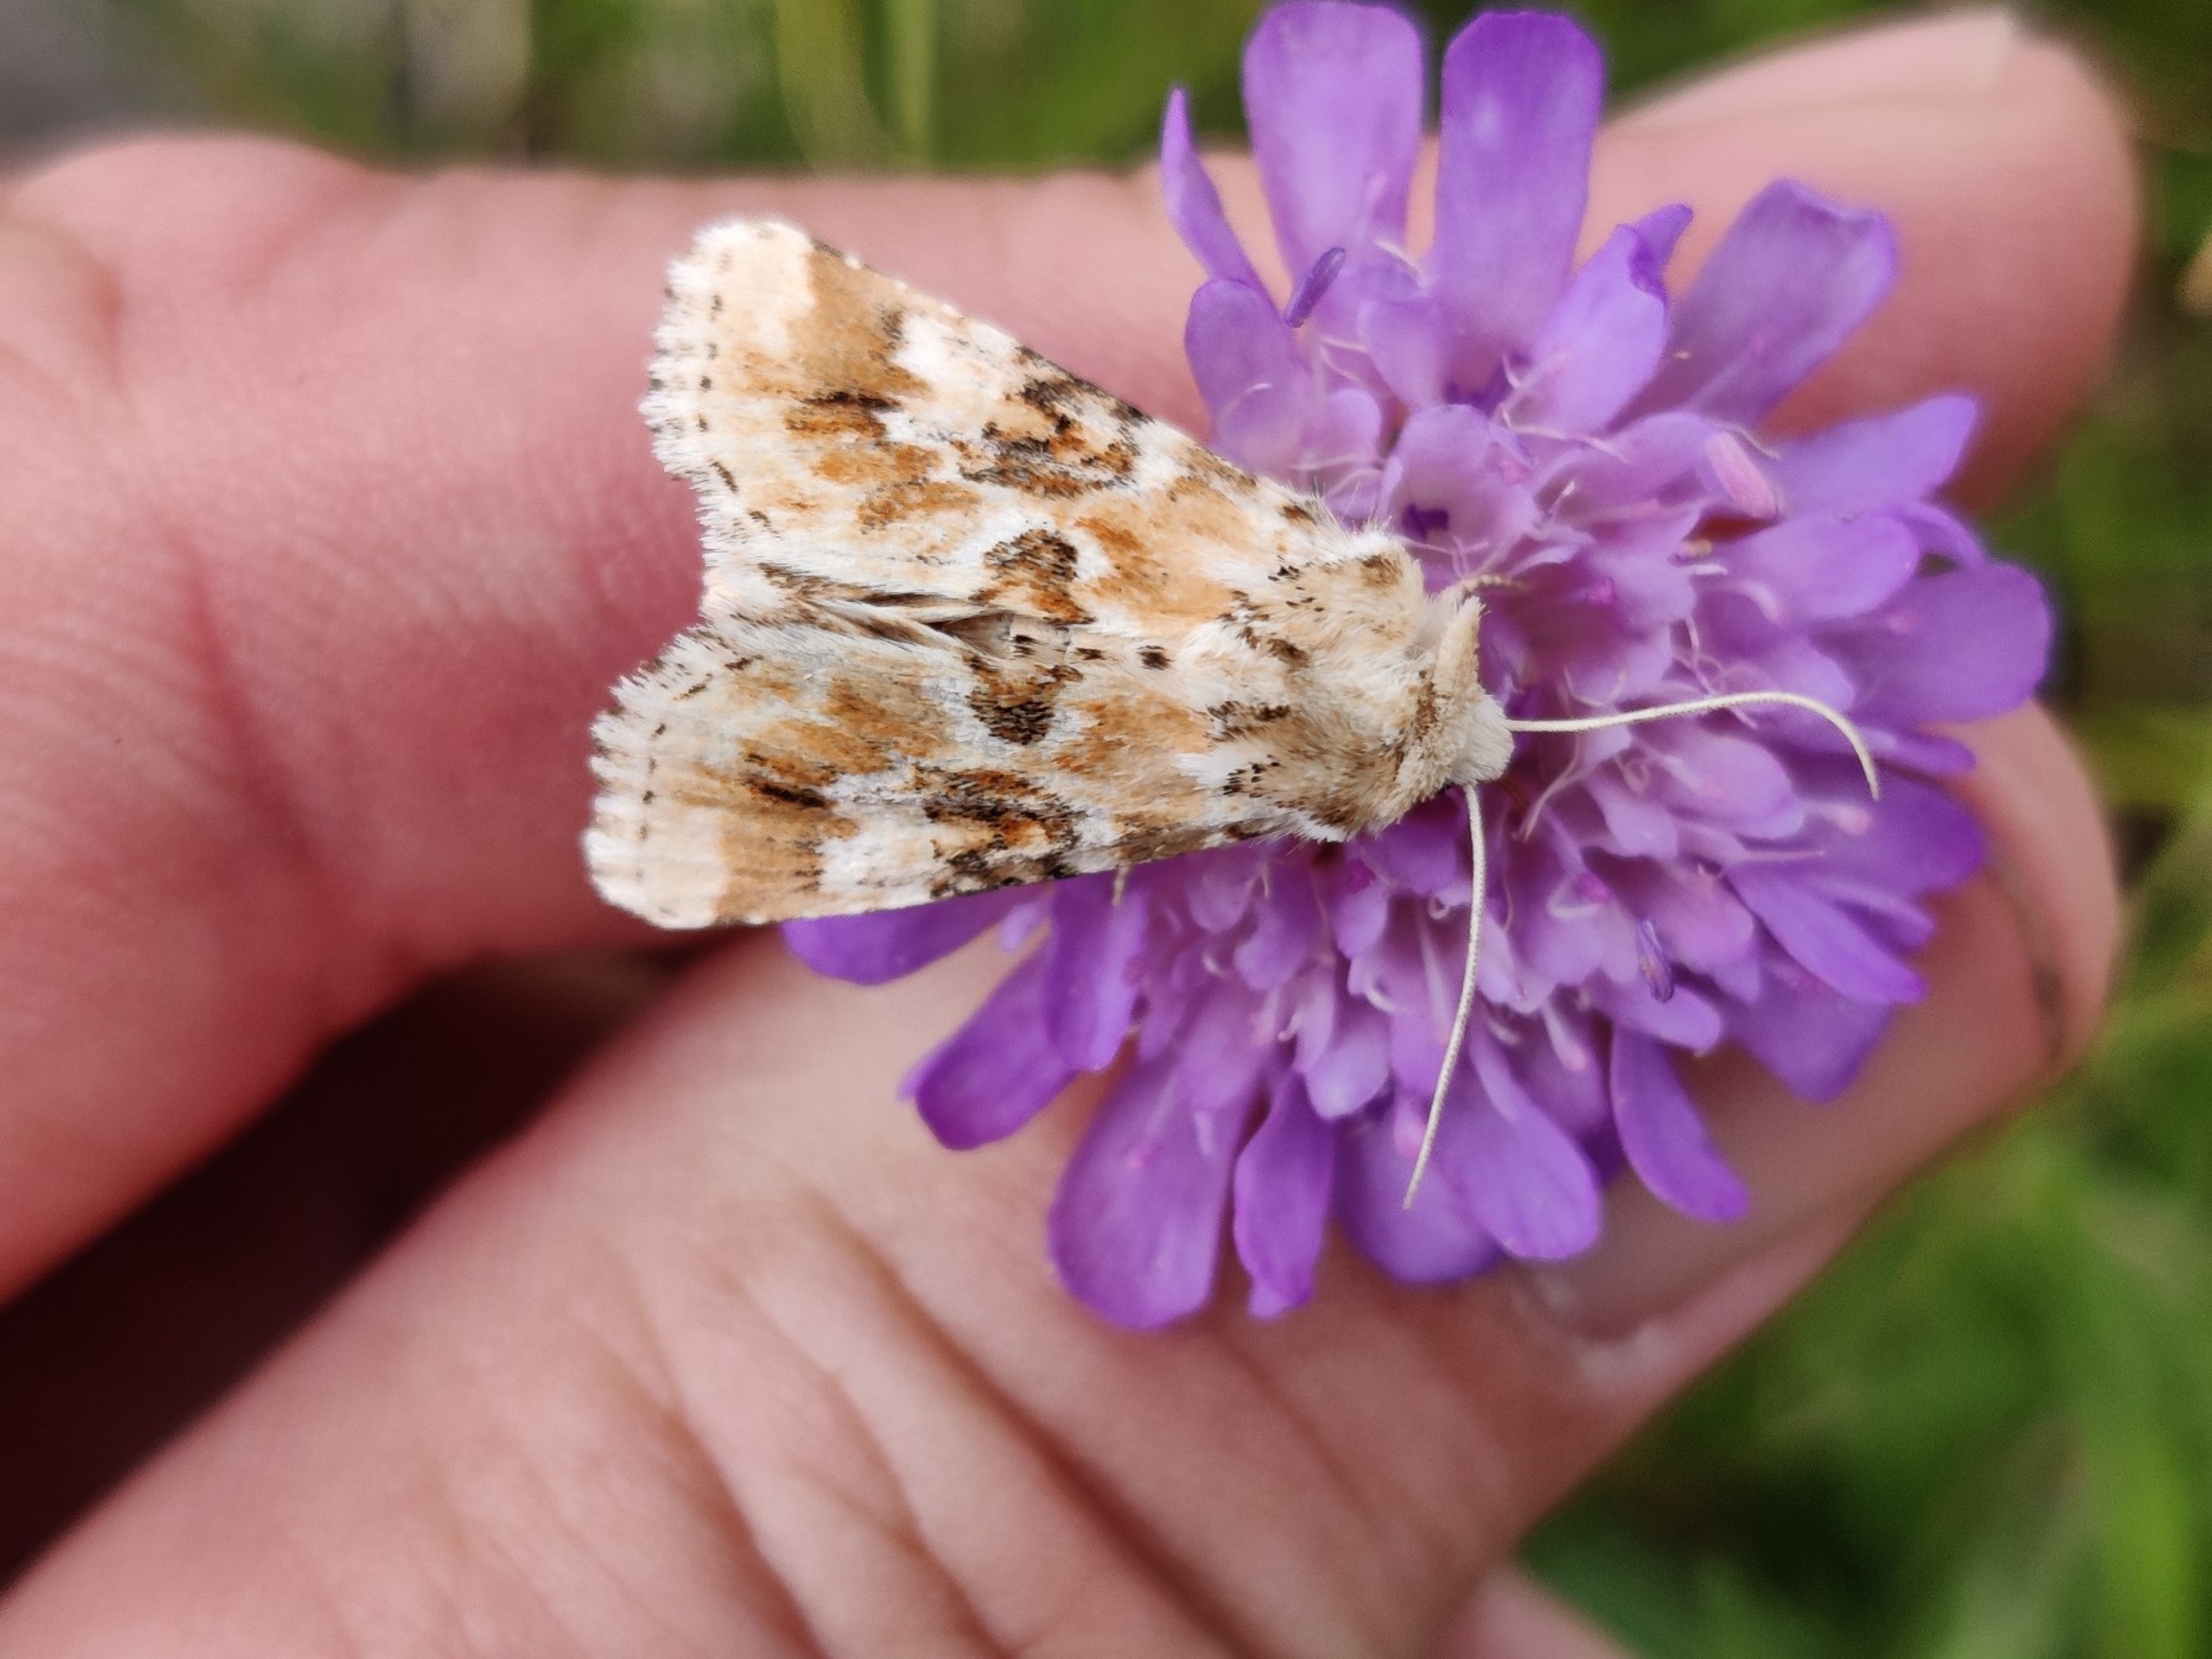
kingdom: Animalia
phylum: Arthropoda
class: Insecta
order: Lepidoptera
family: Noctuidae
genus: Eremobia
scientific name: Eremobia ochroleuca
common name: Blomster-stængelugle
